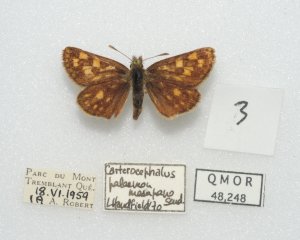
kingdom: Animalia
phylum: Arthropoda
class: Insecta
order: Lepidoptera
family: Hesperiidae
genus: Carterocephalus
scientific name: Carterocephalus palaemon
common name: Chequered Skipper
